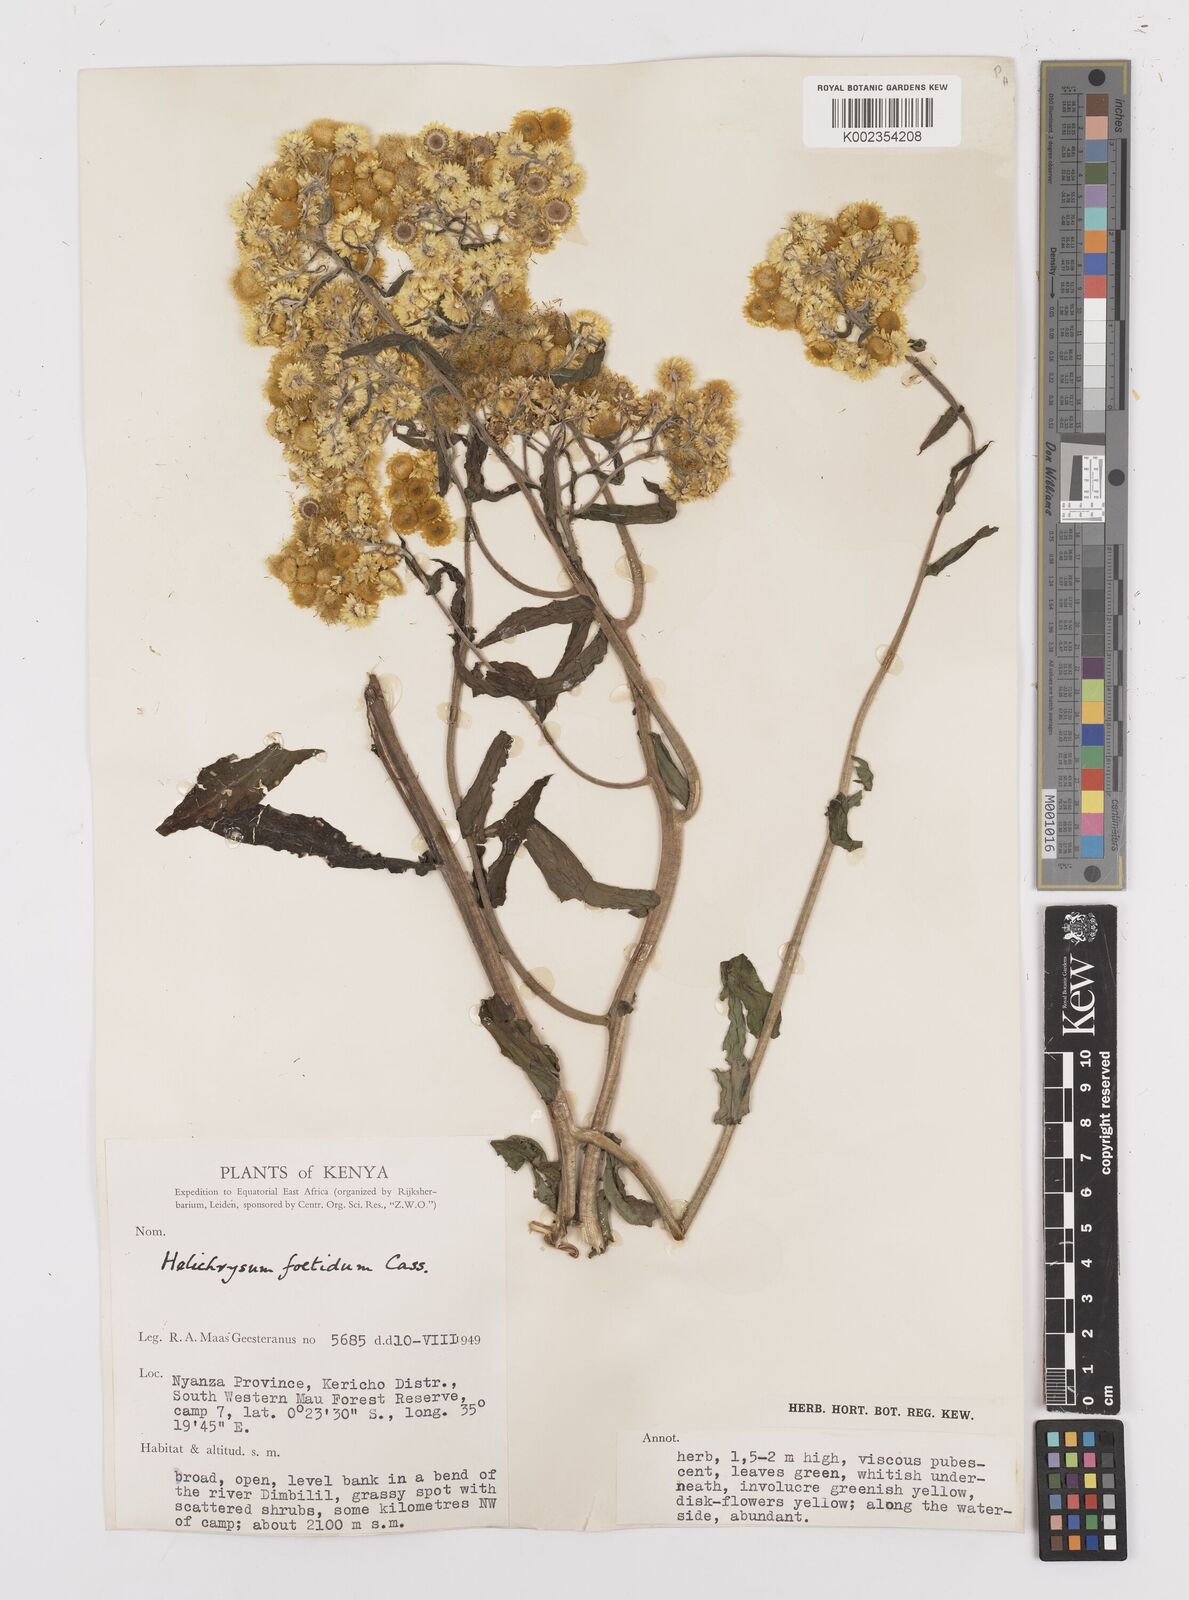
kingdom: Plantae
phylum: Tracheophyta
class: Magnoliopsida
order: Asterales
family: Asteraceae
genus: Helichrysum
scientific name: Helichrysum
